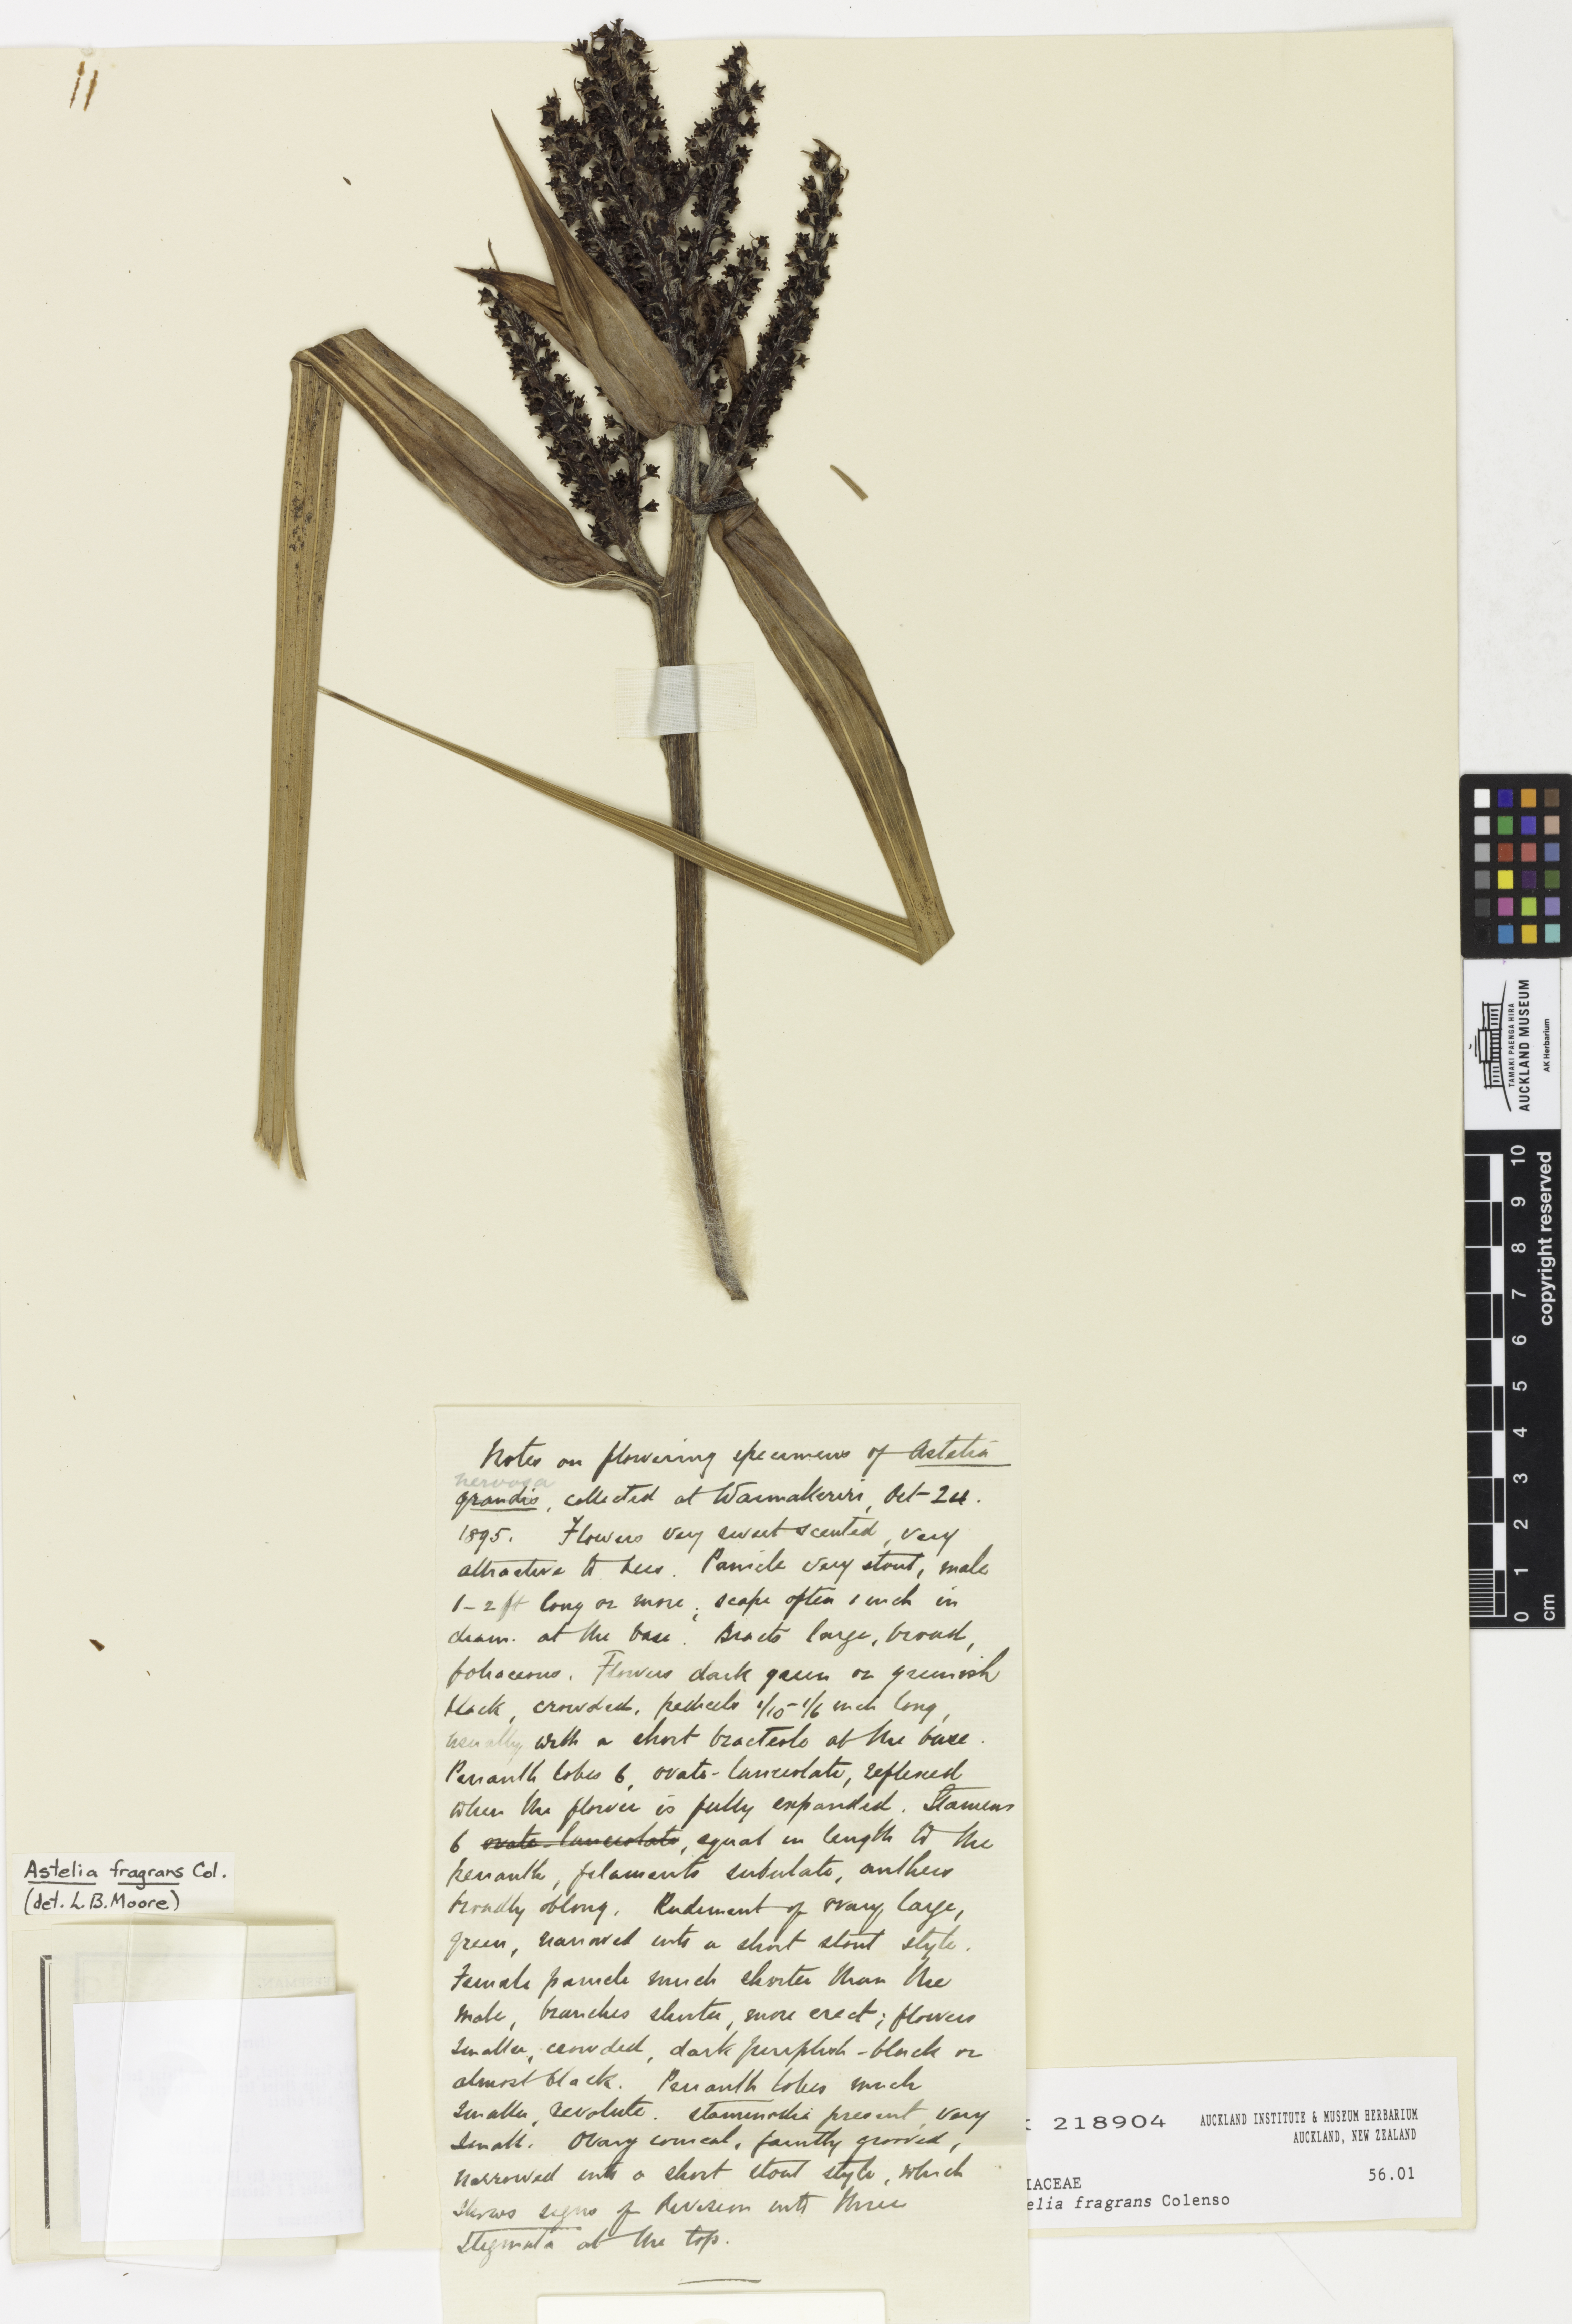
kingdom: Plantae
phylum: Tracheophyta
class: Liliopsida
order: Asparagales
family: Asteliaceae
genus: Astelia
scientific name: Astelia fragrans
